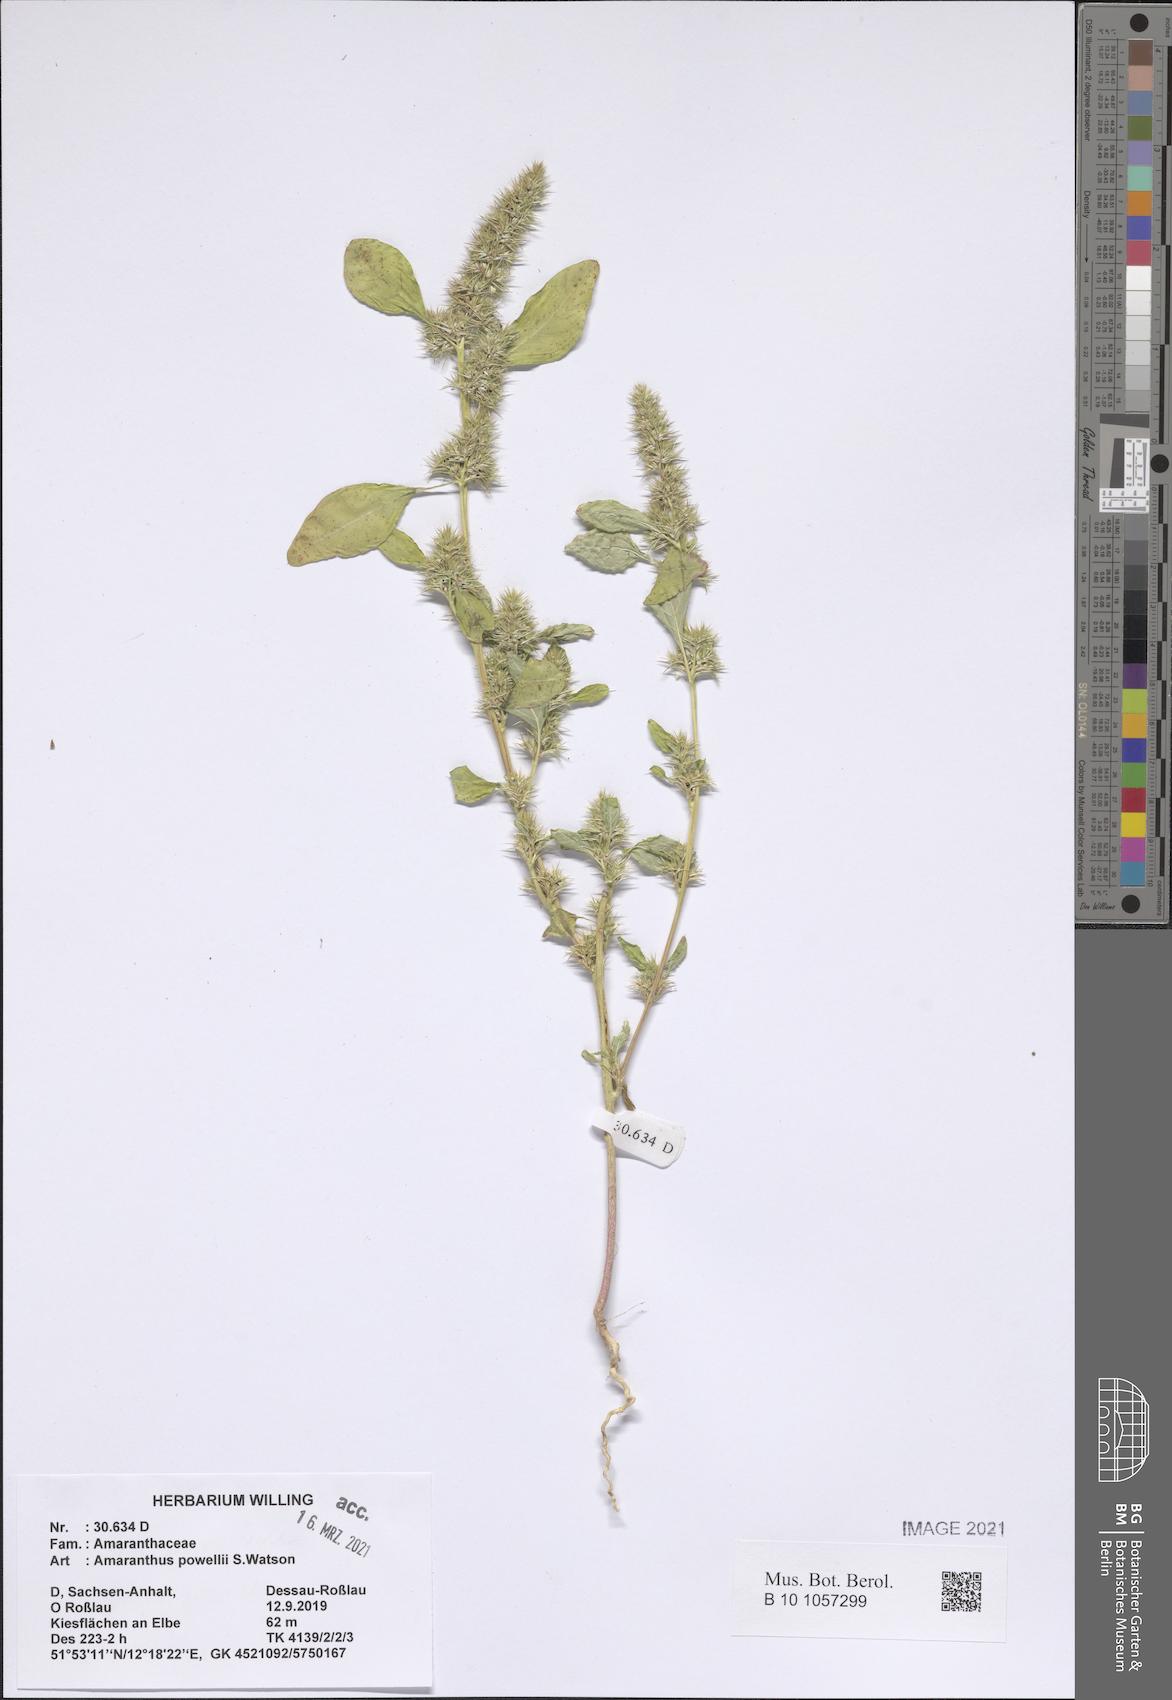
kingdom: Plantae
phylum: Tracheophyta
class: Magnoliopsida
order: Caryophyllales
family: Amaranthaceae
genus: Amaranthus
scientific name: Amaranthus powellii
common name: Powell's amaranth
